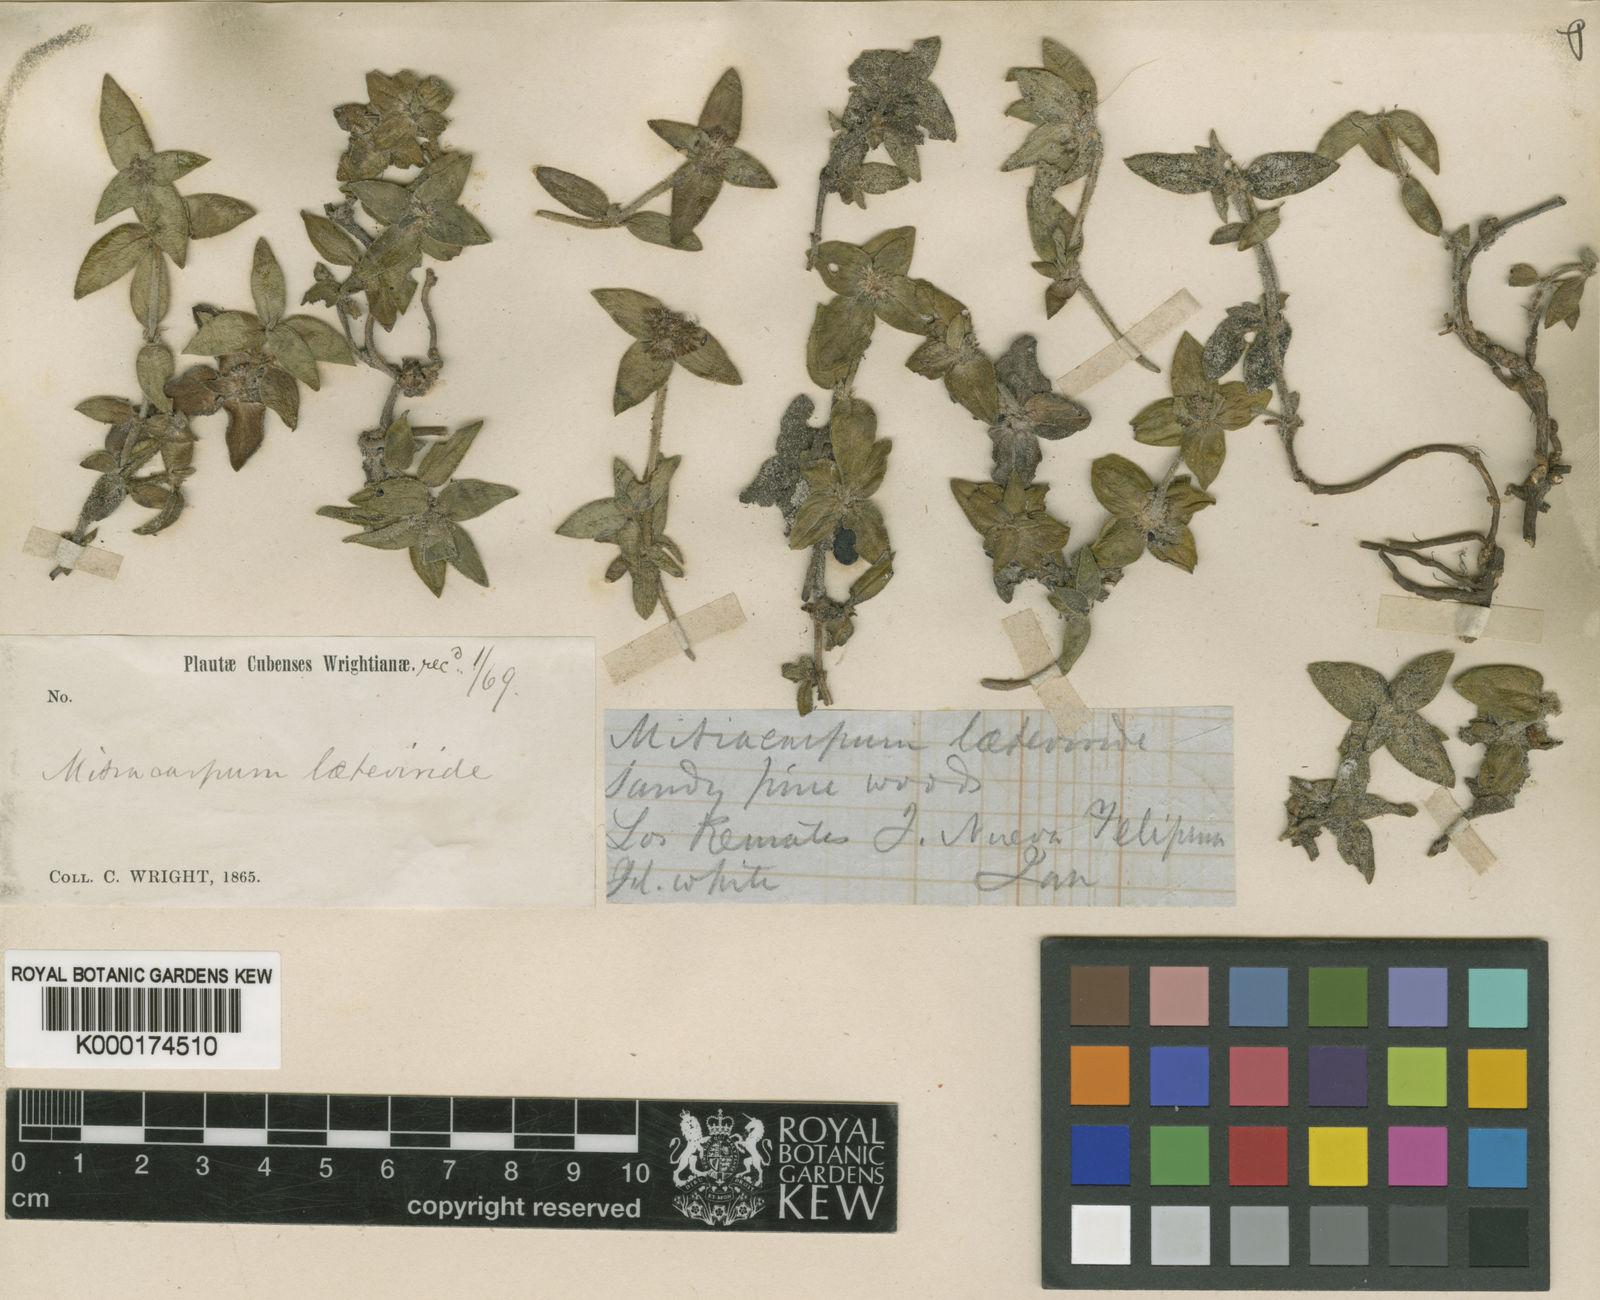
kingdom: Plantae
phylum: Tracheophyta
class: Magnoliopsida
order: Gentianales
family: Rubiaceae
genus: Mitracarpus
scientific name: Mitracarpus laeteviridis
